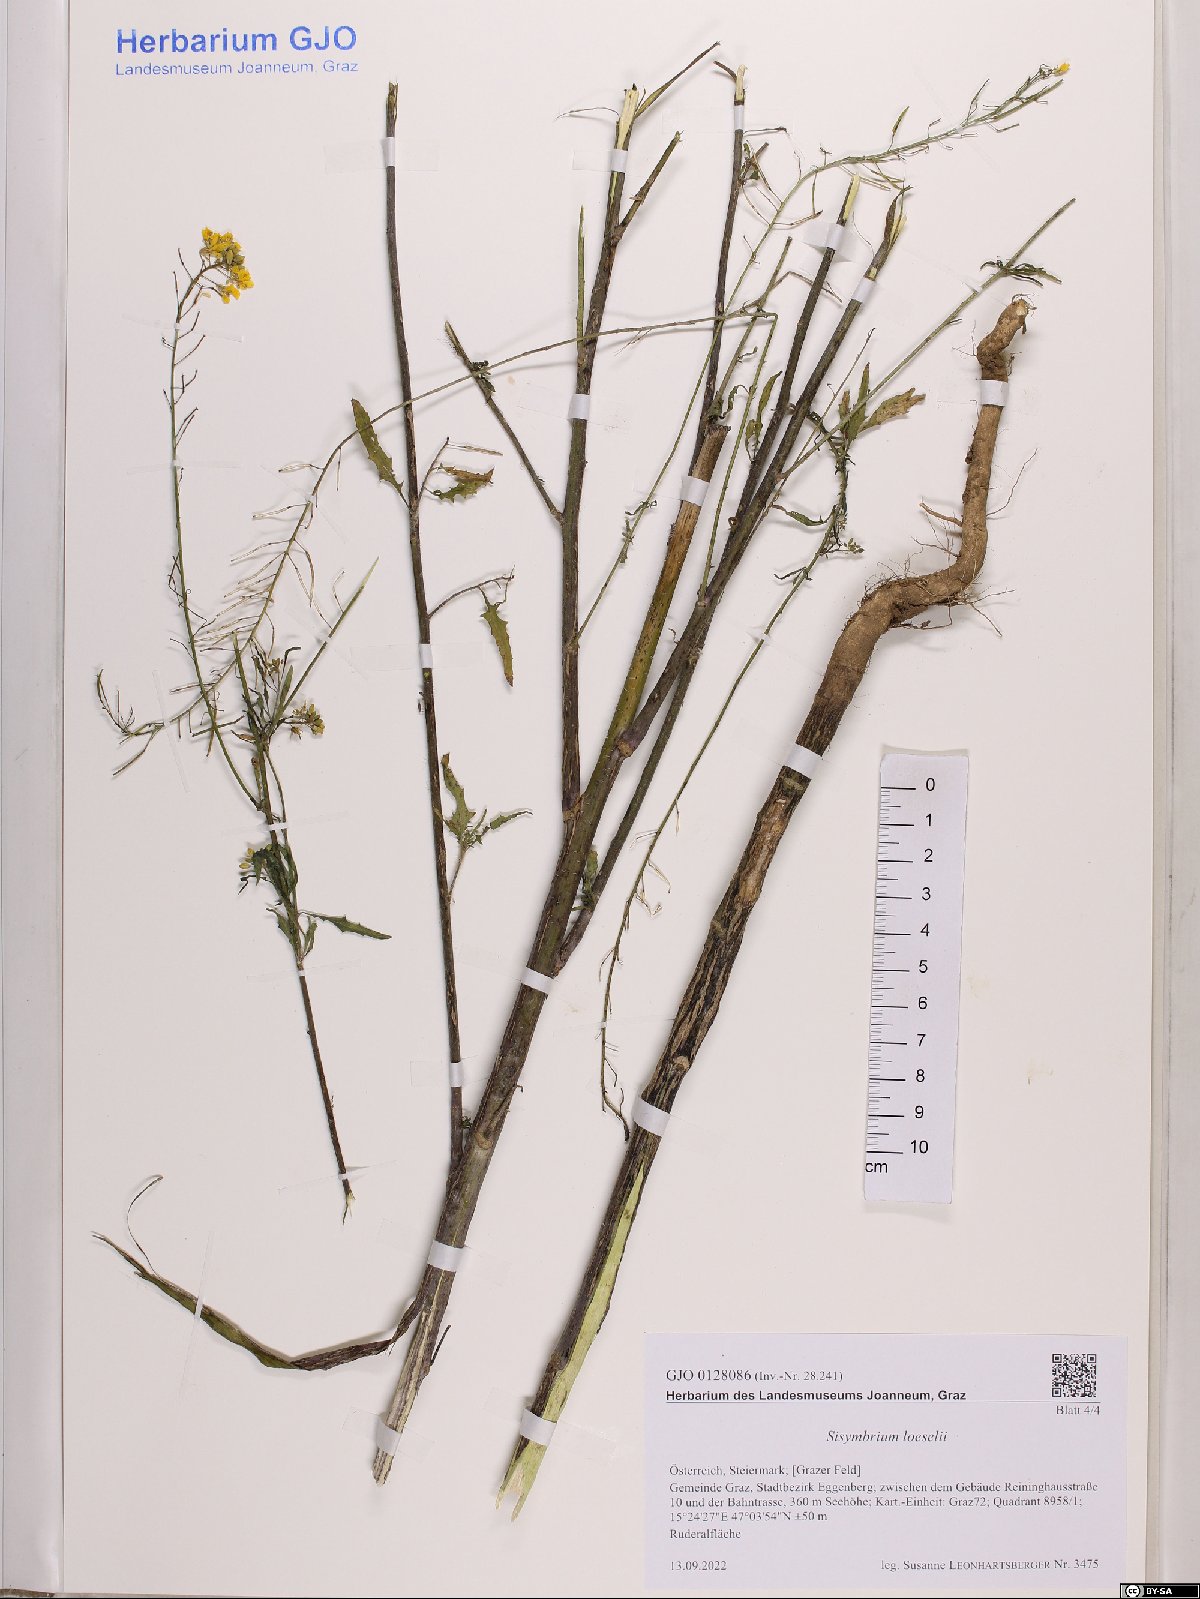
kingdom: Plantae
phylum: Tracheophyta
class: Magnoliopsida
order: Brassicales
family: Brassicaceae
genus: Sisymbrium
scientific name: Sisymbrium loeselii
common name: False london-rocket
